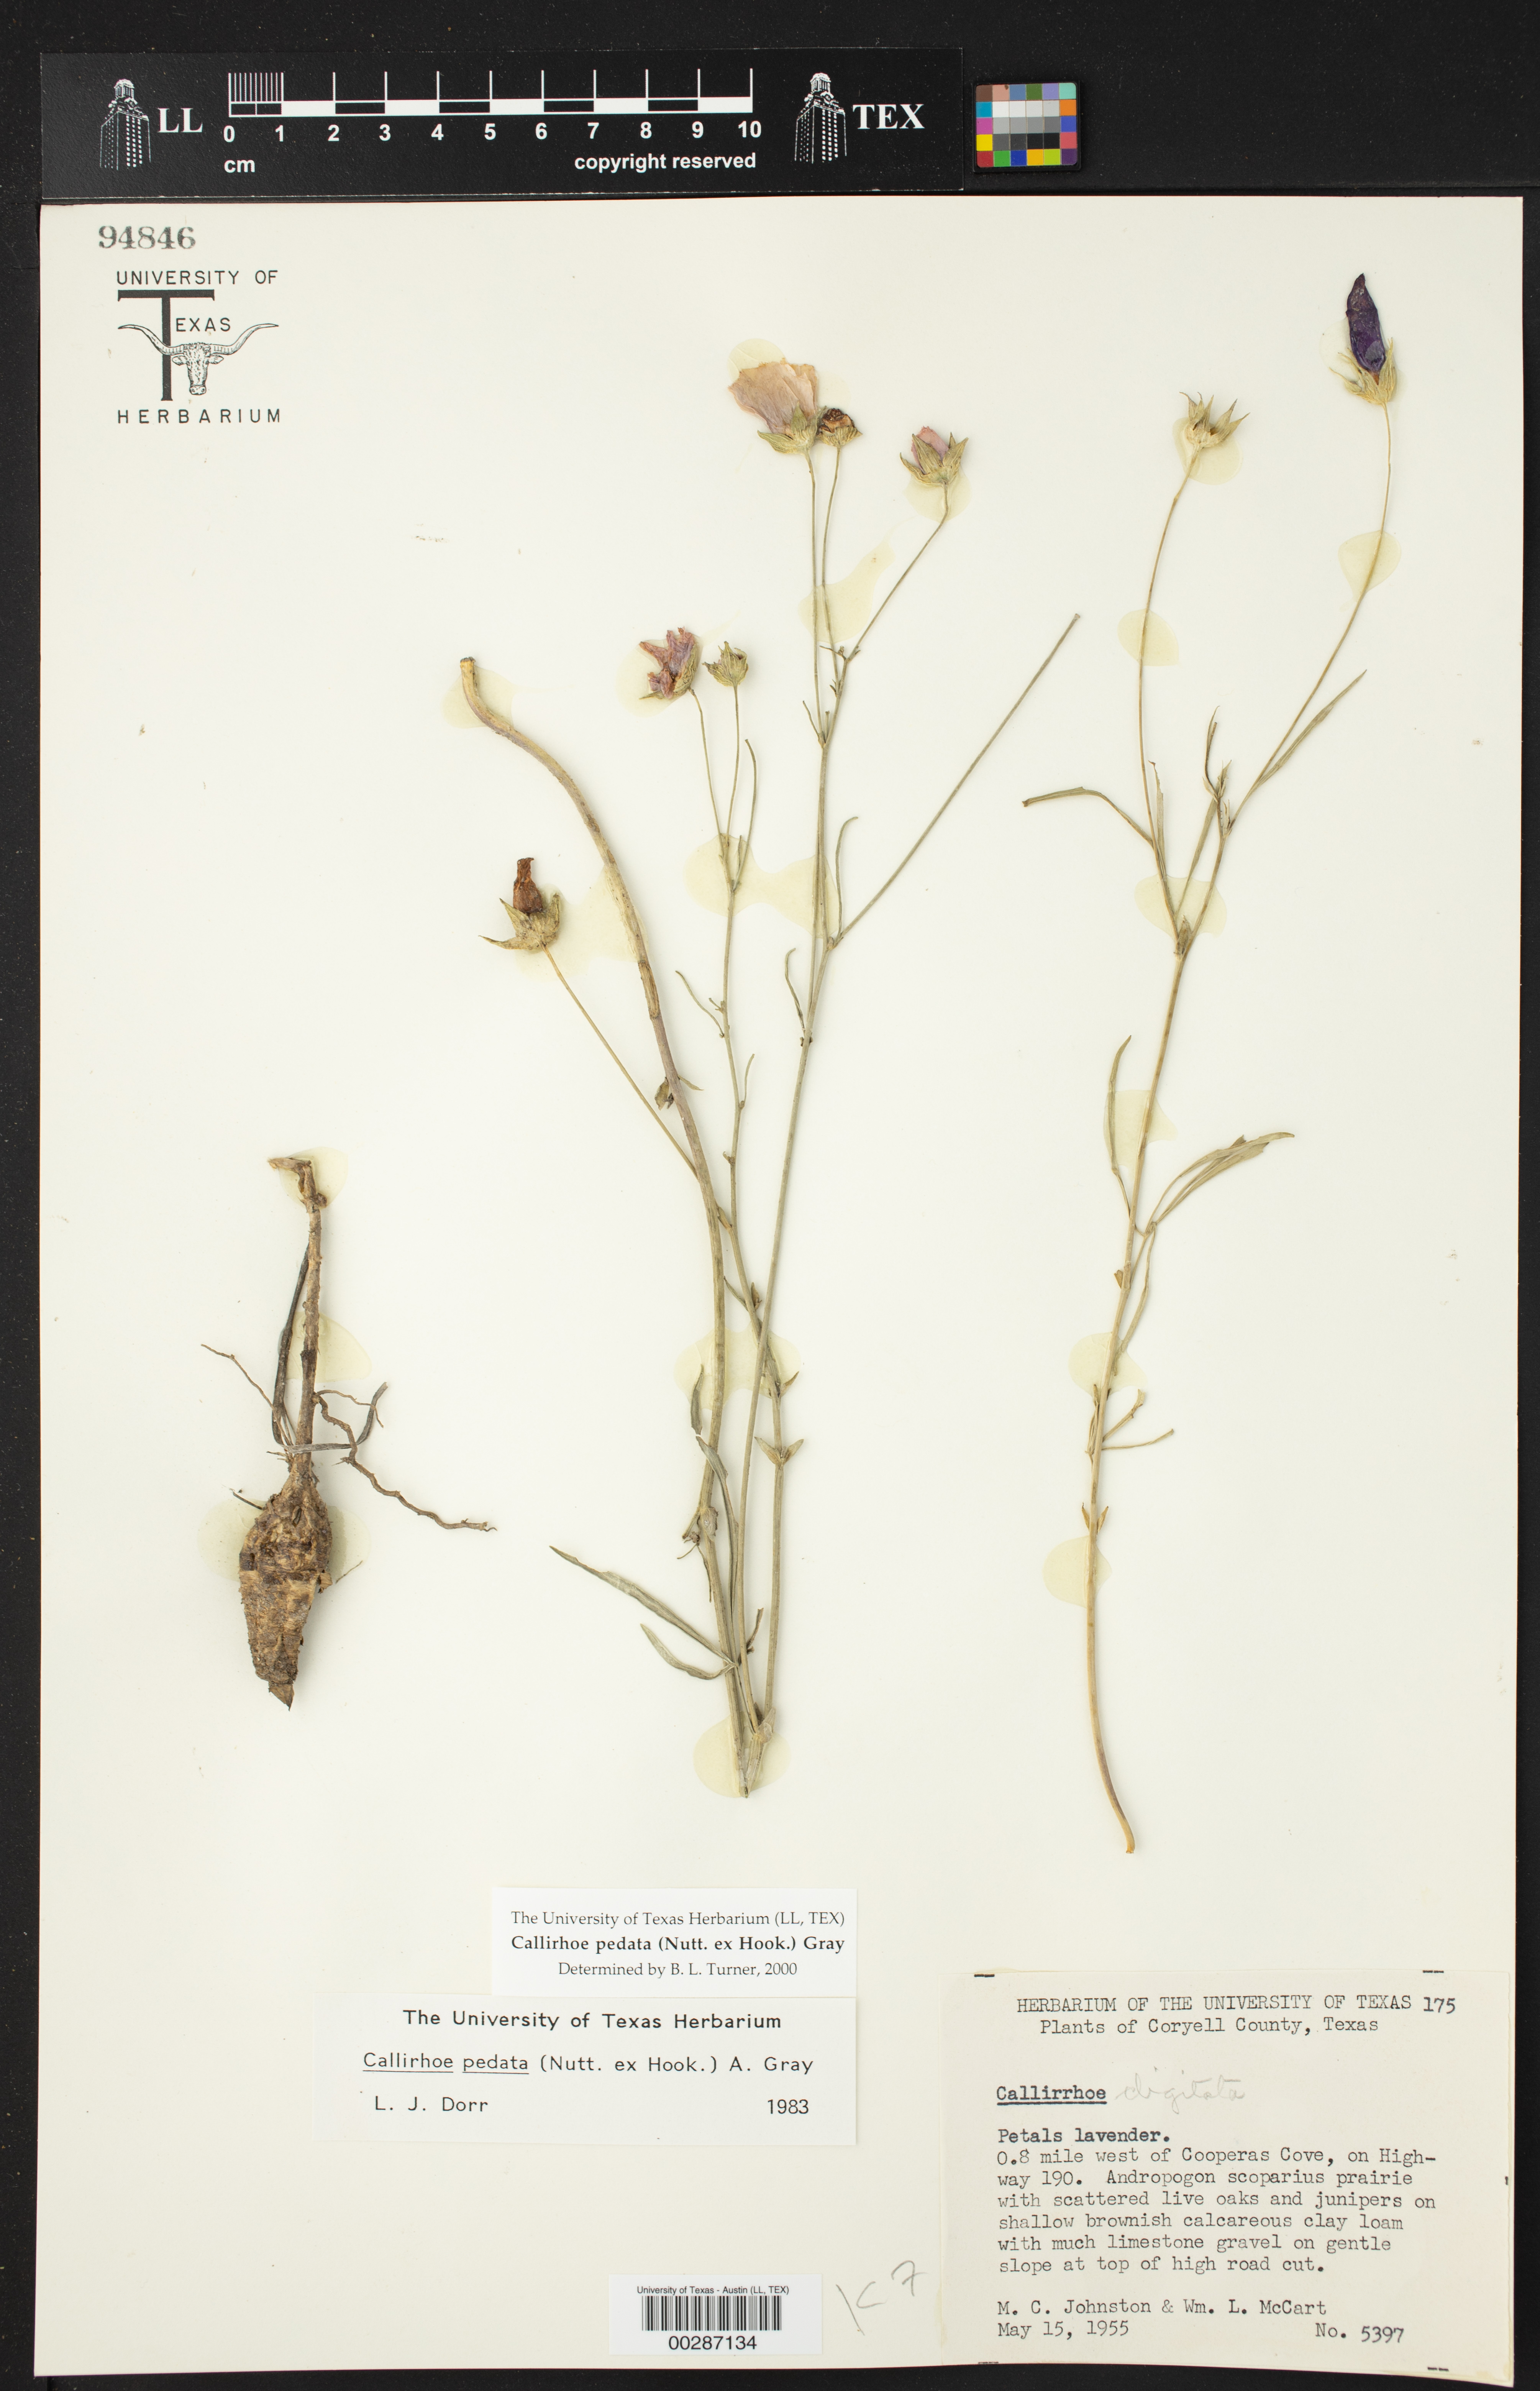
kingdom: Plantae
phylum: Tracheophyta
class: Magnoliopsida
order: Malvales
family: Malvaceae
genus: Callirhoe
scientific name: Callirhoe pedata
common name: Finger poppy-mallow
